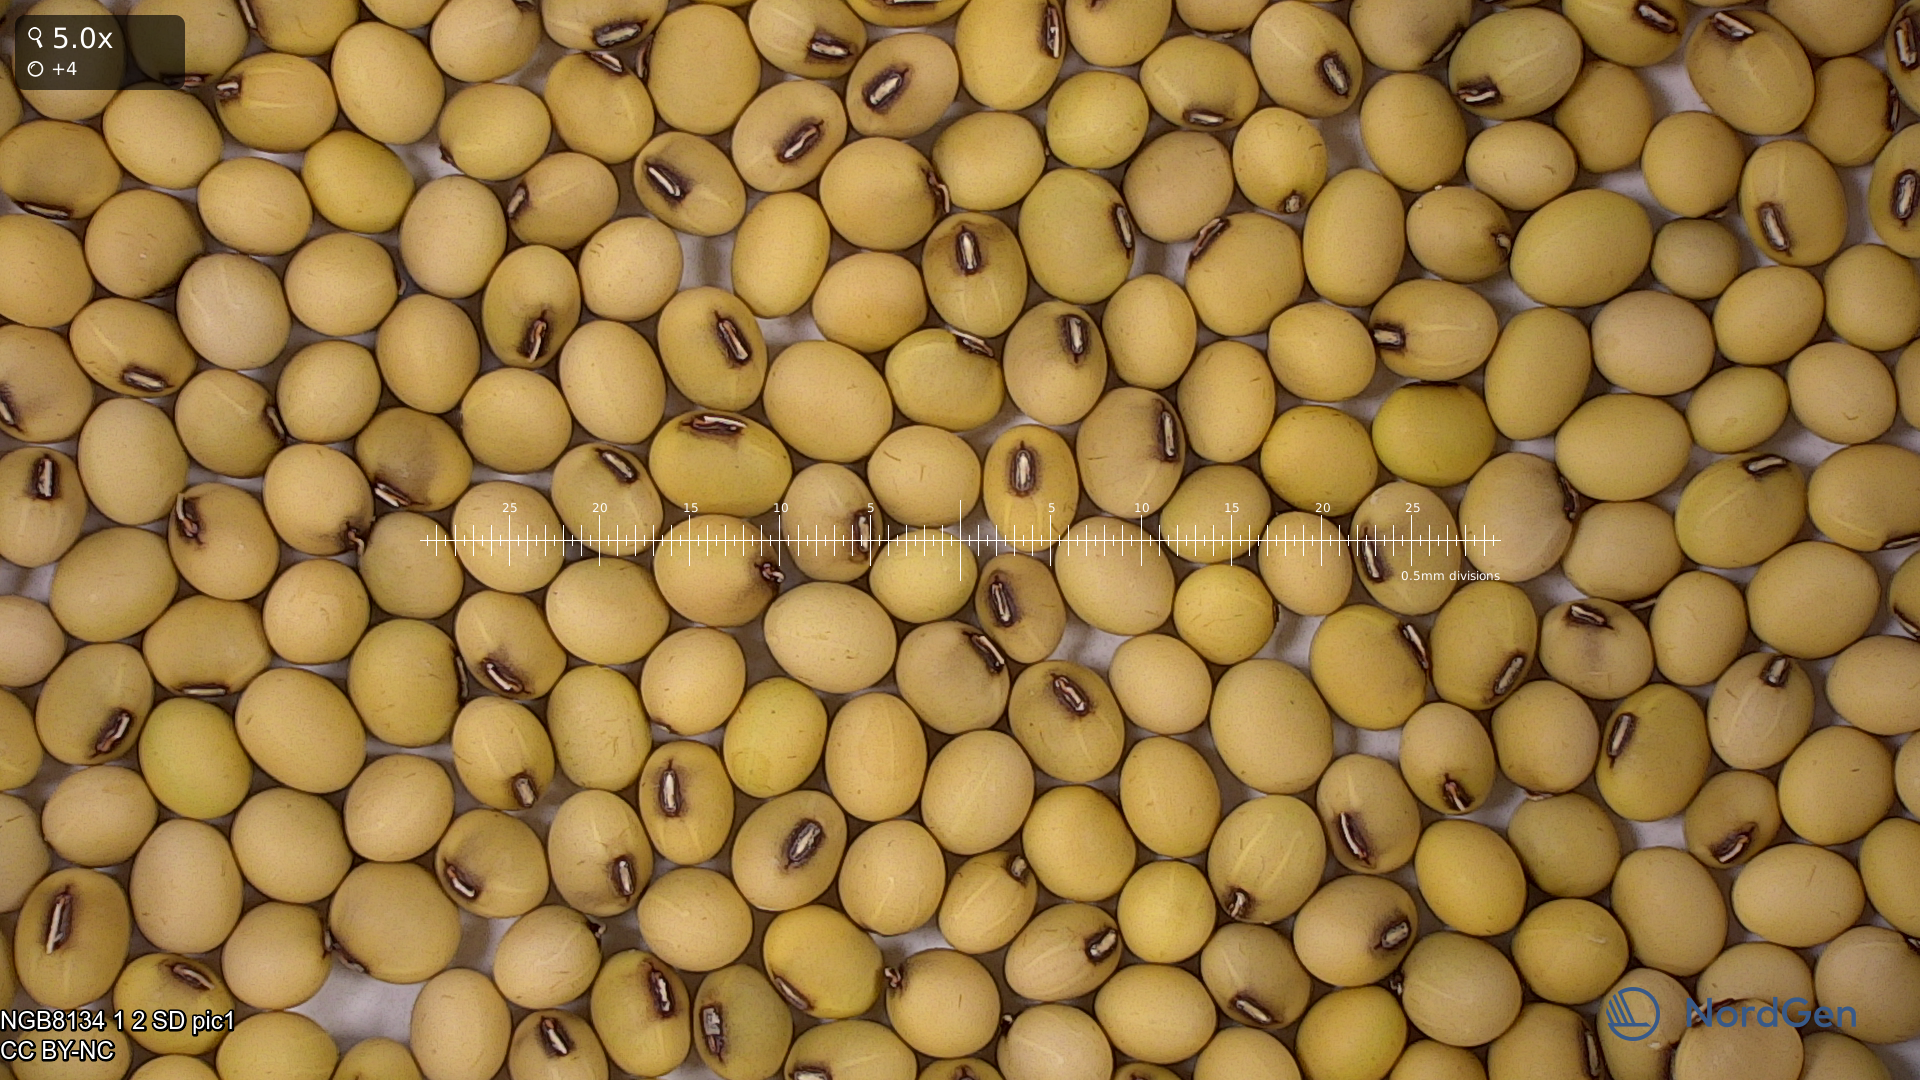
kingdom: Plantae
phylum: Tracheophyta
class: Magnoliopsida
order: Fabales
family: Fabaceae
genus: Glycine
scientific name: Glycine max
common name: Soya-bean
